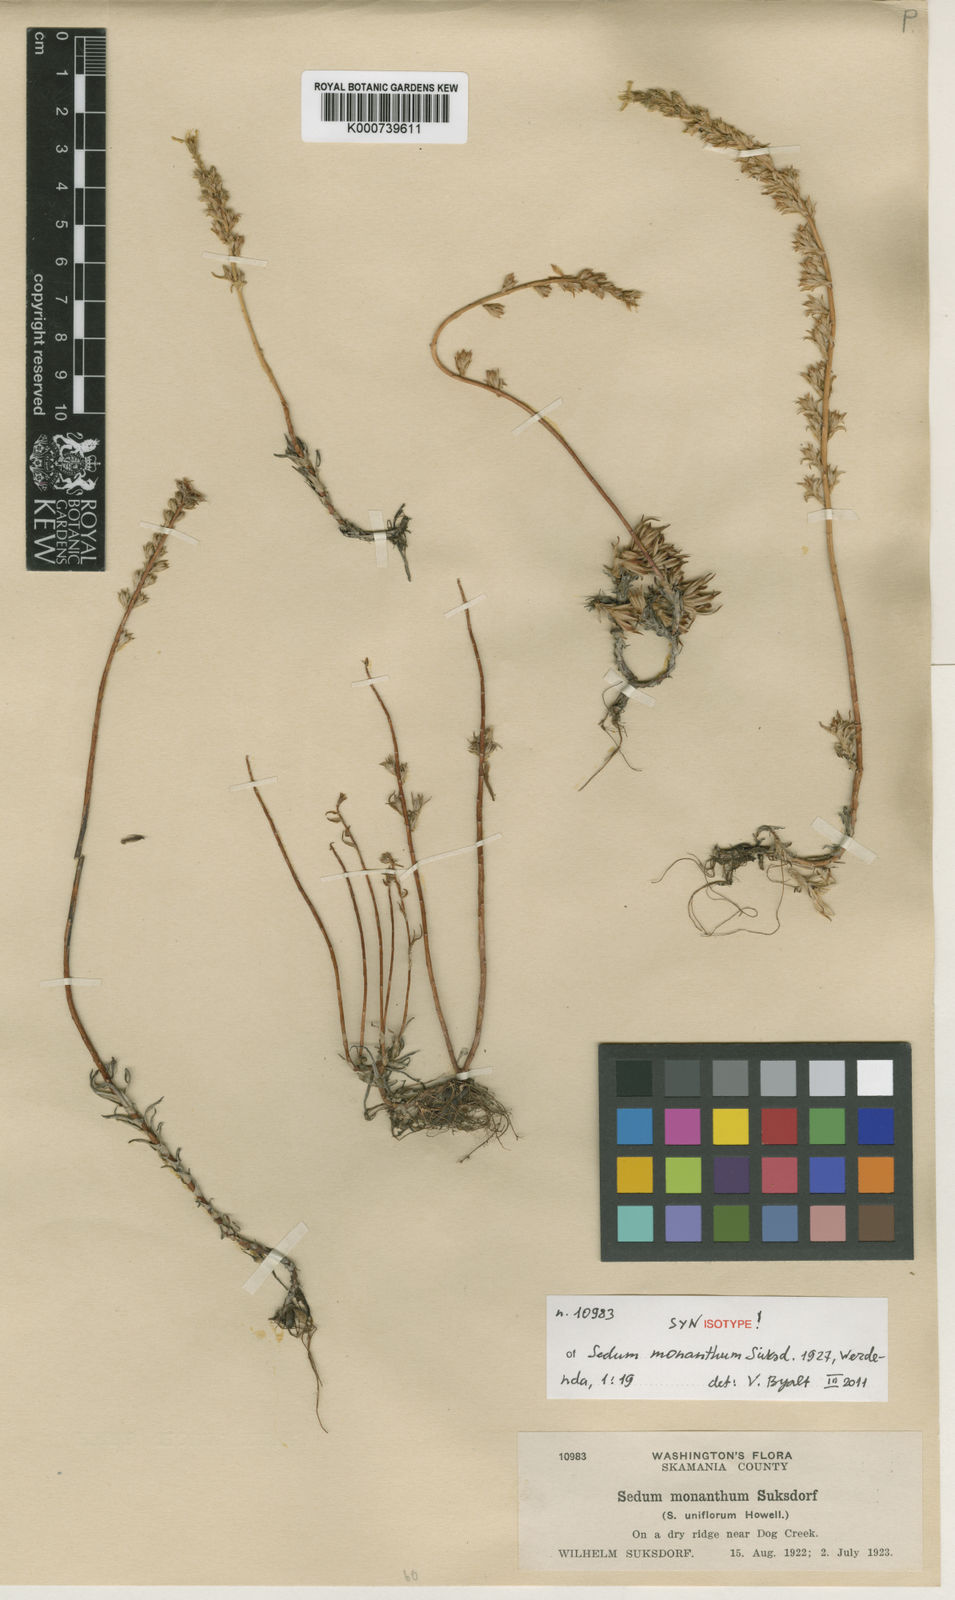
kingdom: Plantae
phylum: Tracheophyta
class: Magnoliopsida
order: Saxifragales
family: Crassulaceae
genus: Sedum
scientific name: Sedum stenopetalum
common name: Narrow-petaled stonecrop
